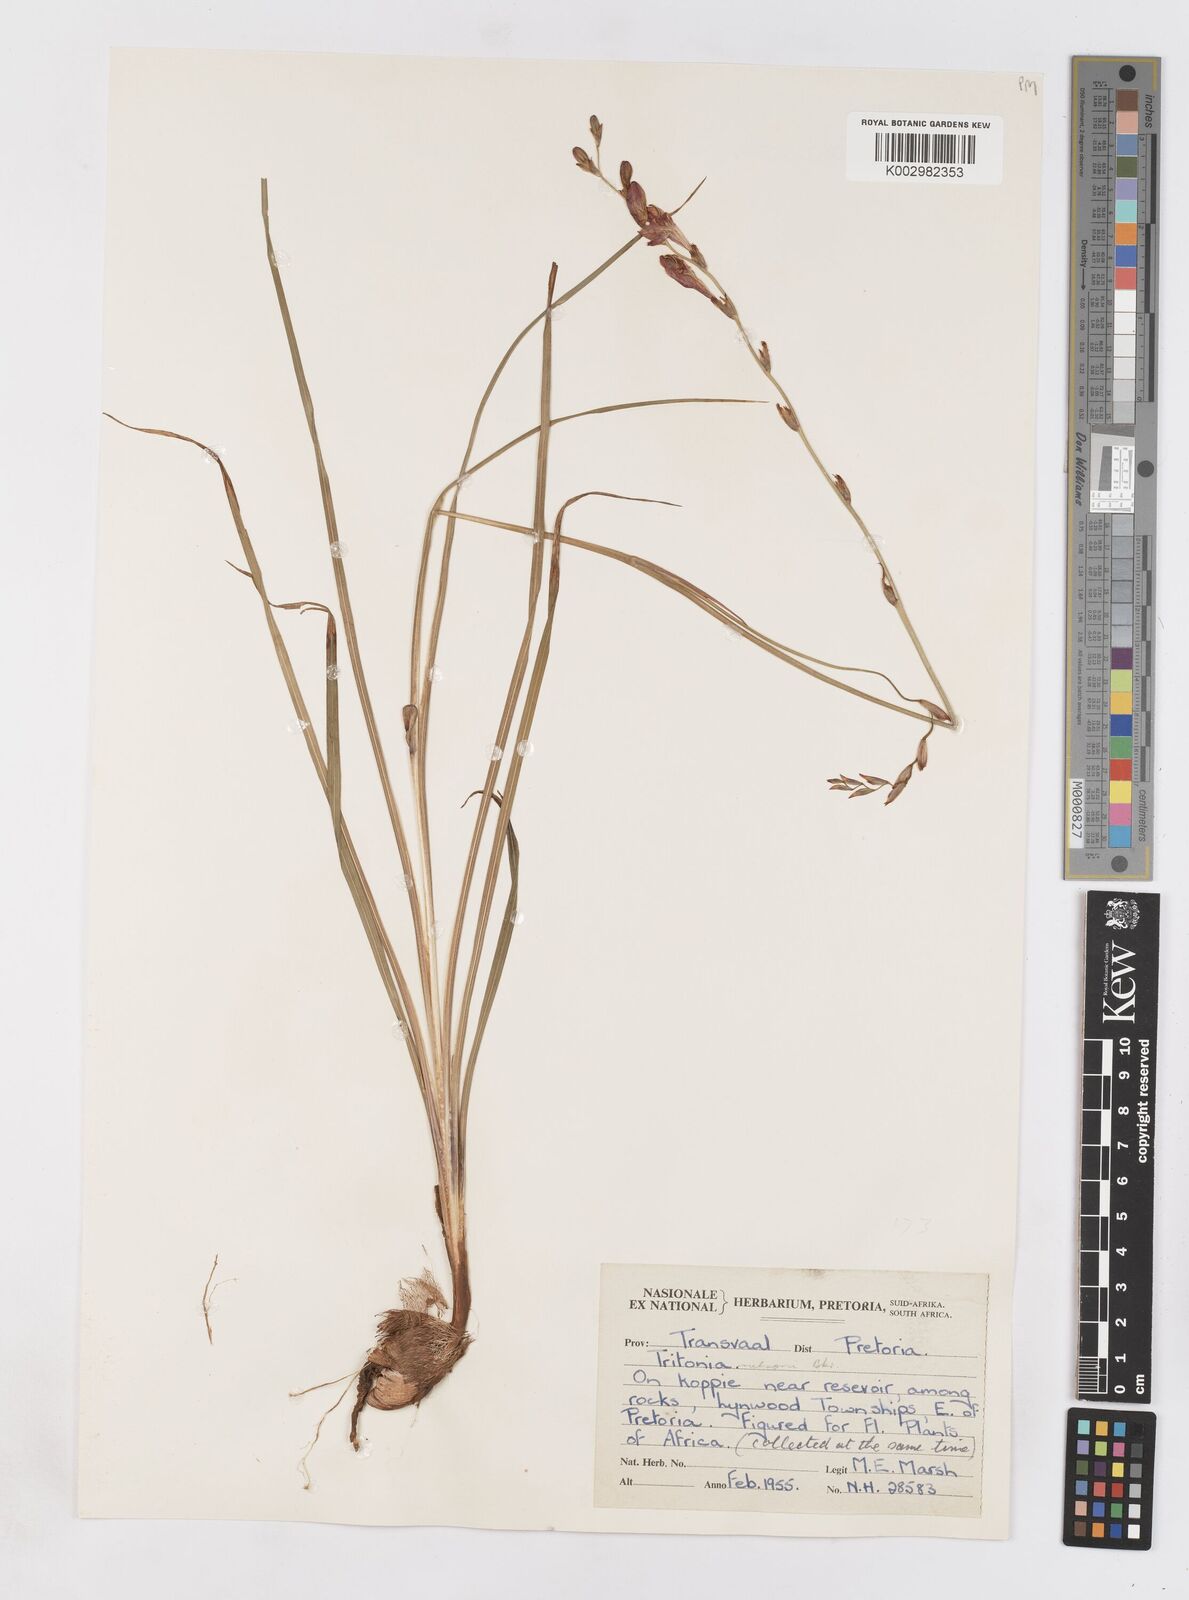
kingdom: Plantae
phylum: Tracheophyta
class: Liliopsida
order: Asparagales
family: Iridaceae
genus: Tritonia
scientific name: Tritonia nelsonii
